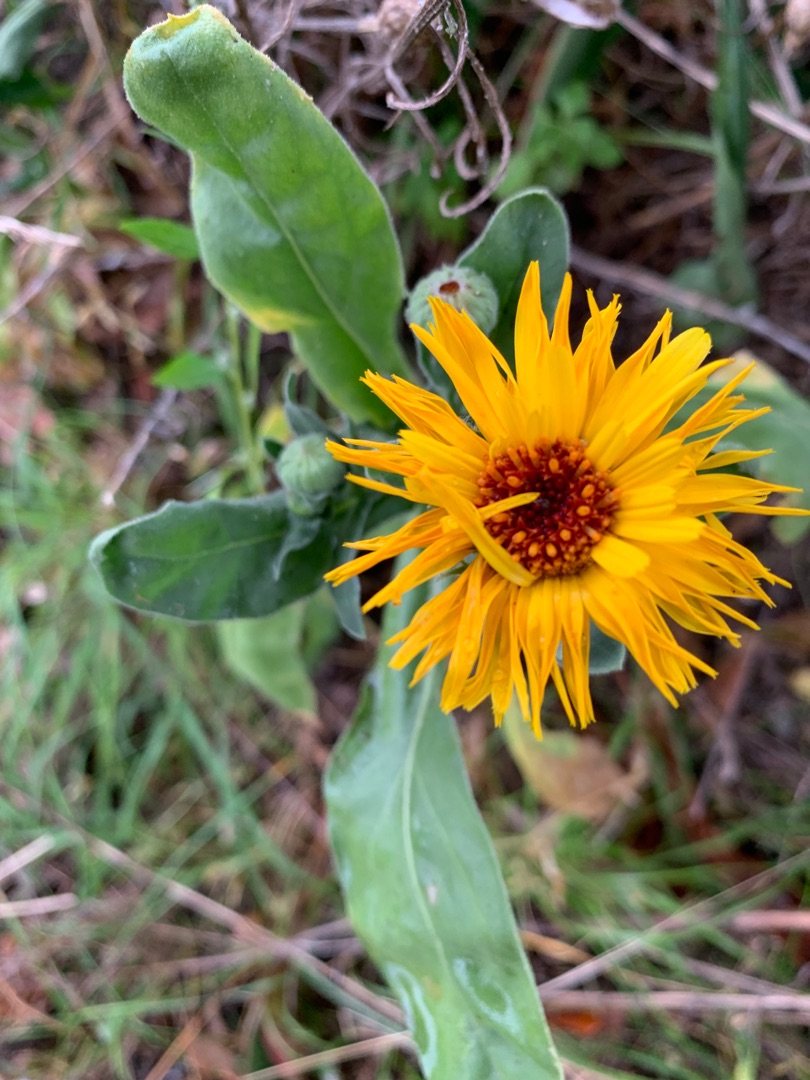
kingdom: Plantae
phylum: Tracheophyta
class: Magnoliopsida
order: Asterales
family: Asteraceae
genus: Calendula
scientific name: Calendula officinalis
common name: Have-morgenfrue
